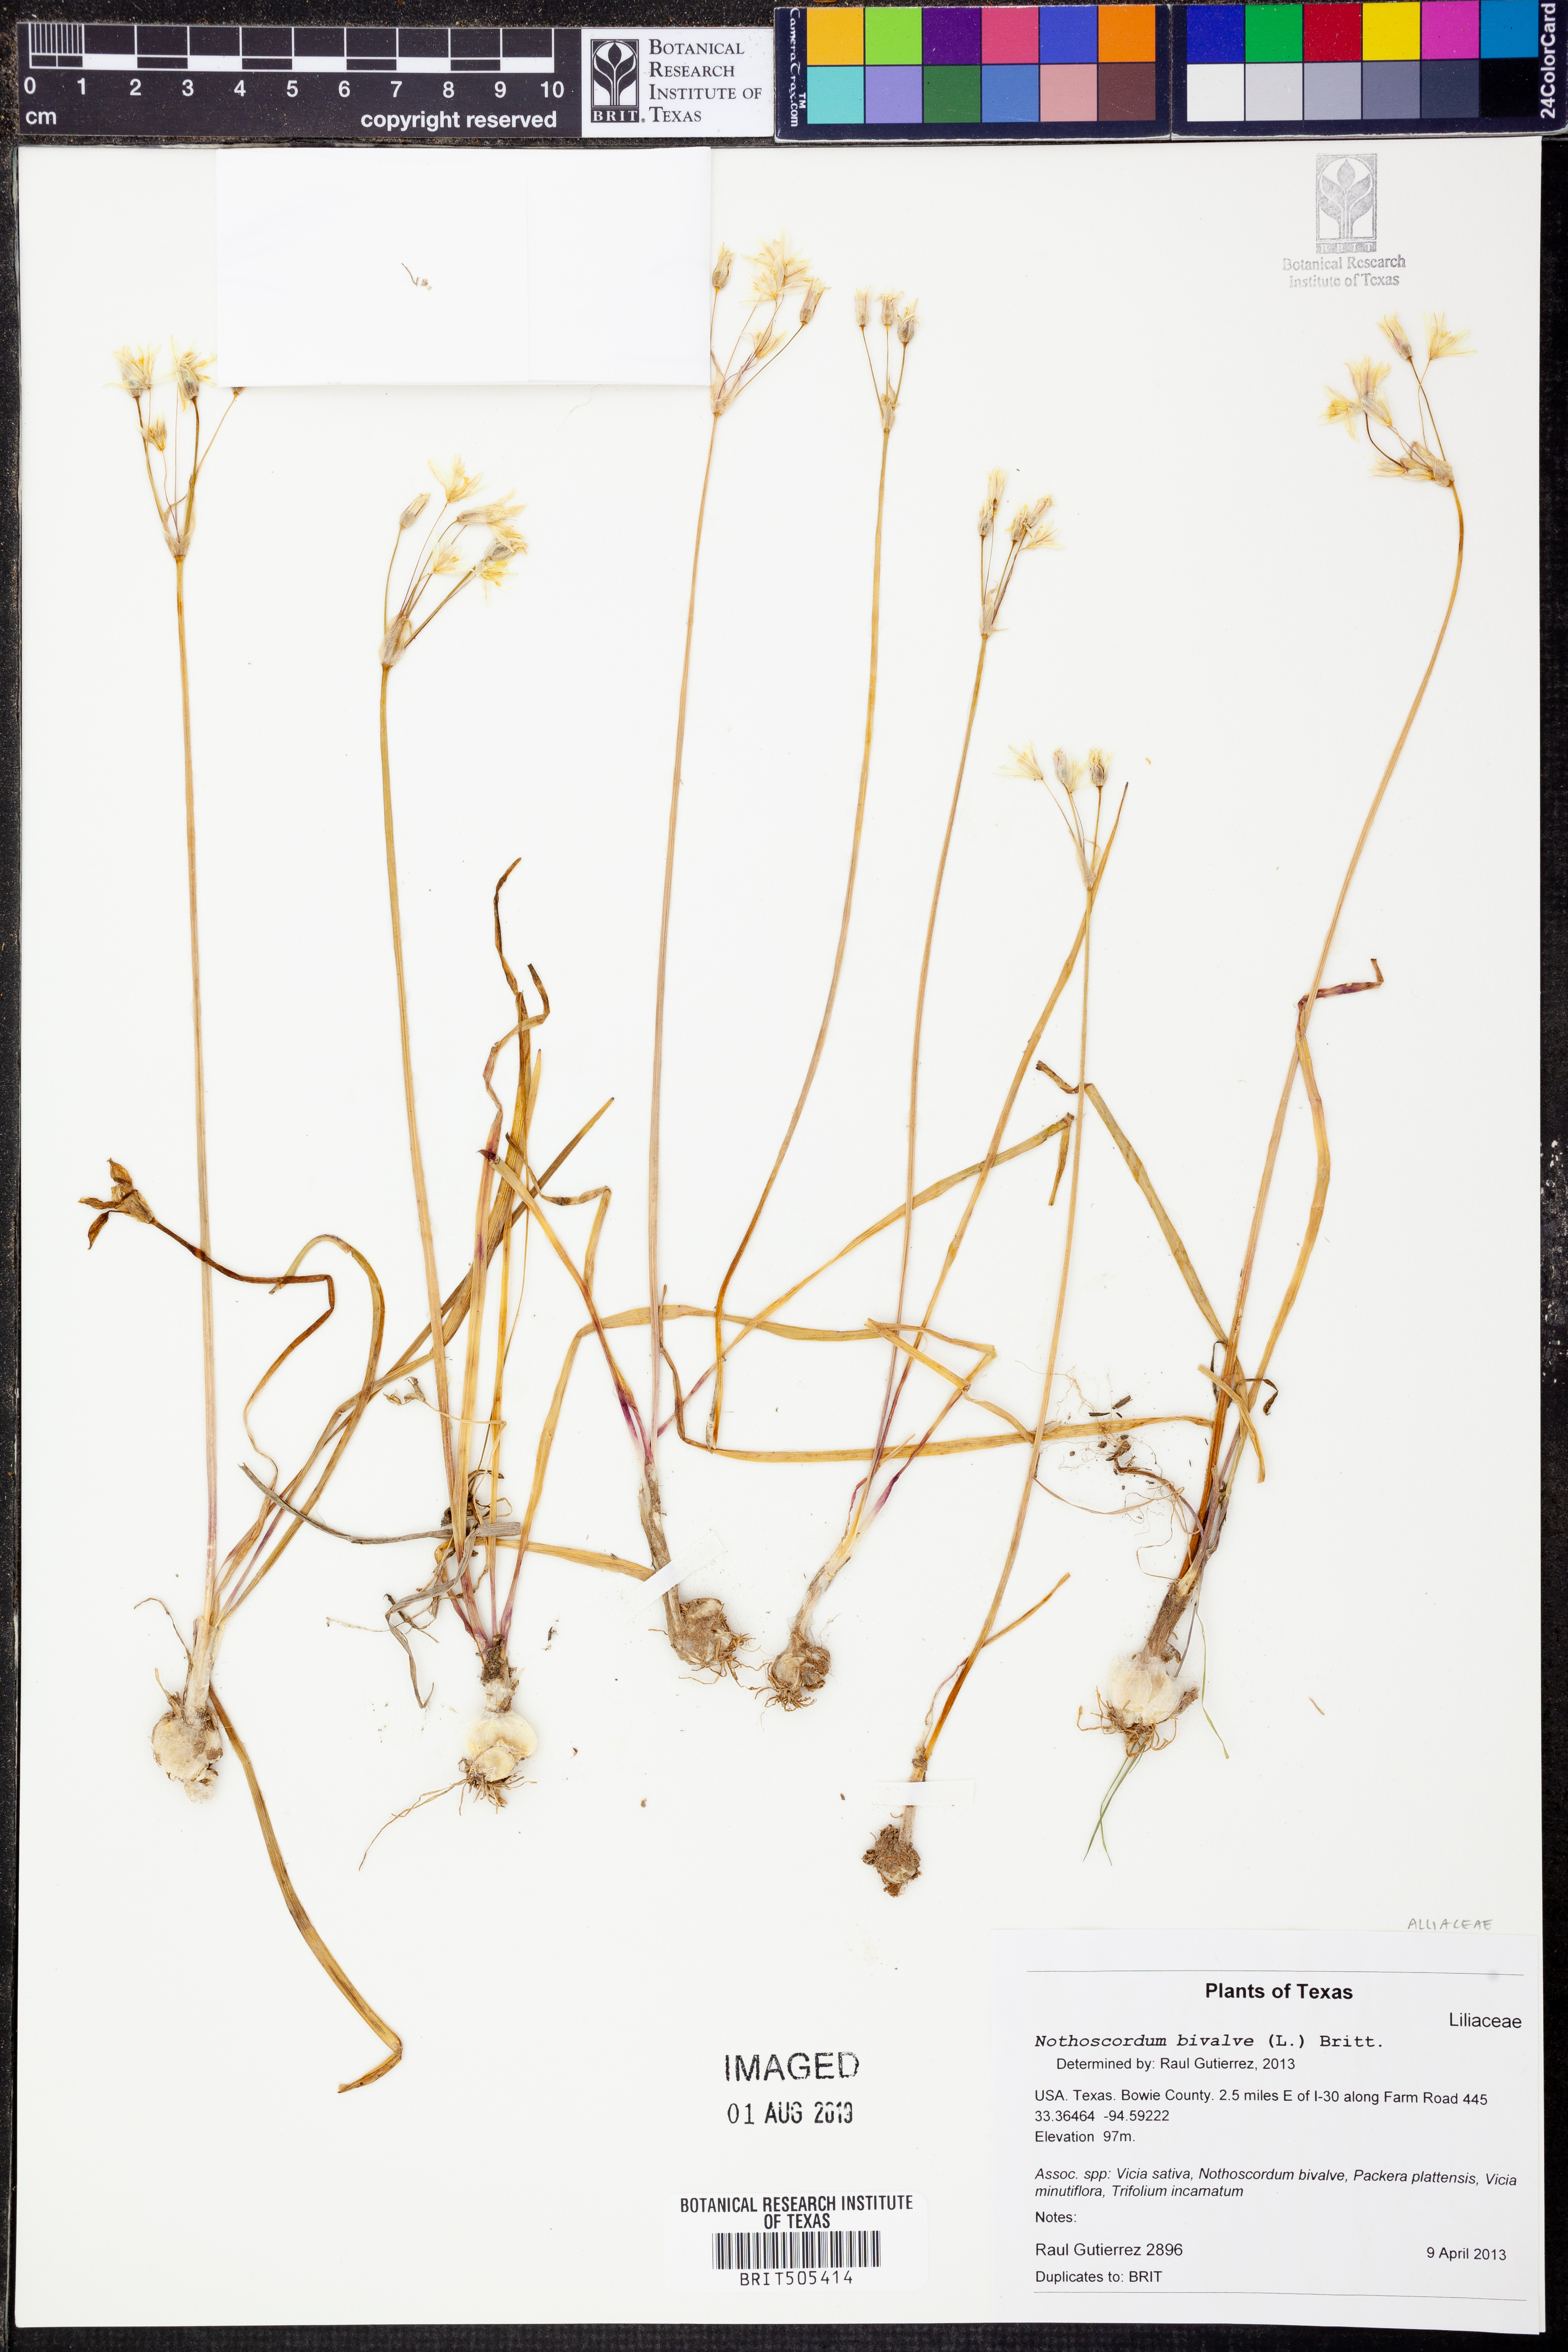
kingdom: Plantae
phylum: Tracheophyta
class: Liliopsida
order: Asparagales
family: Amaryllidaceae
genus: Nothoscordum
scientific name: Nothoscordum bivalve
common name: Crow-poison
